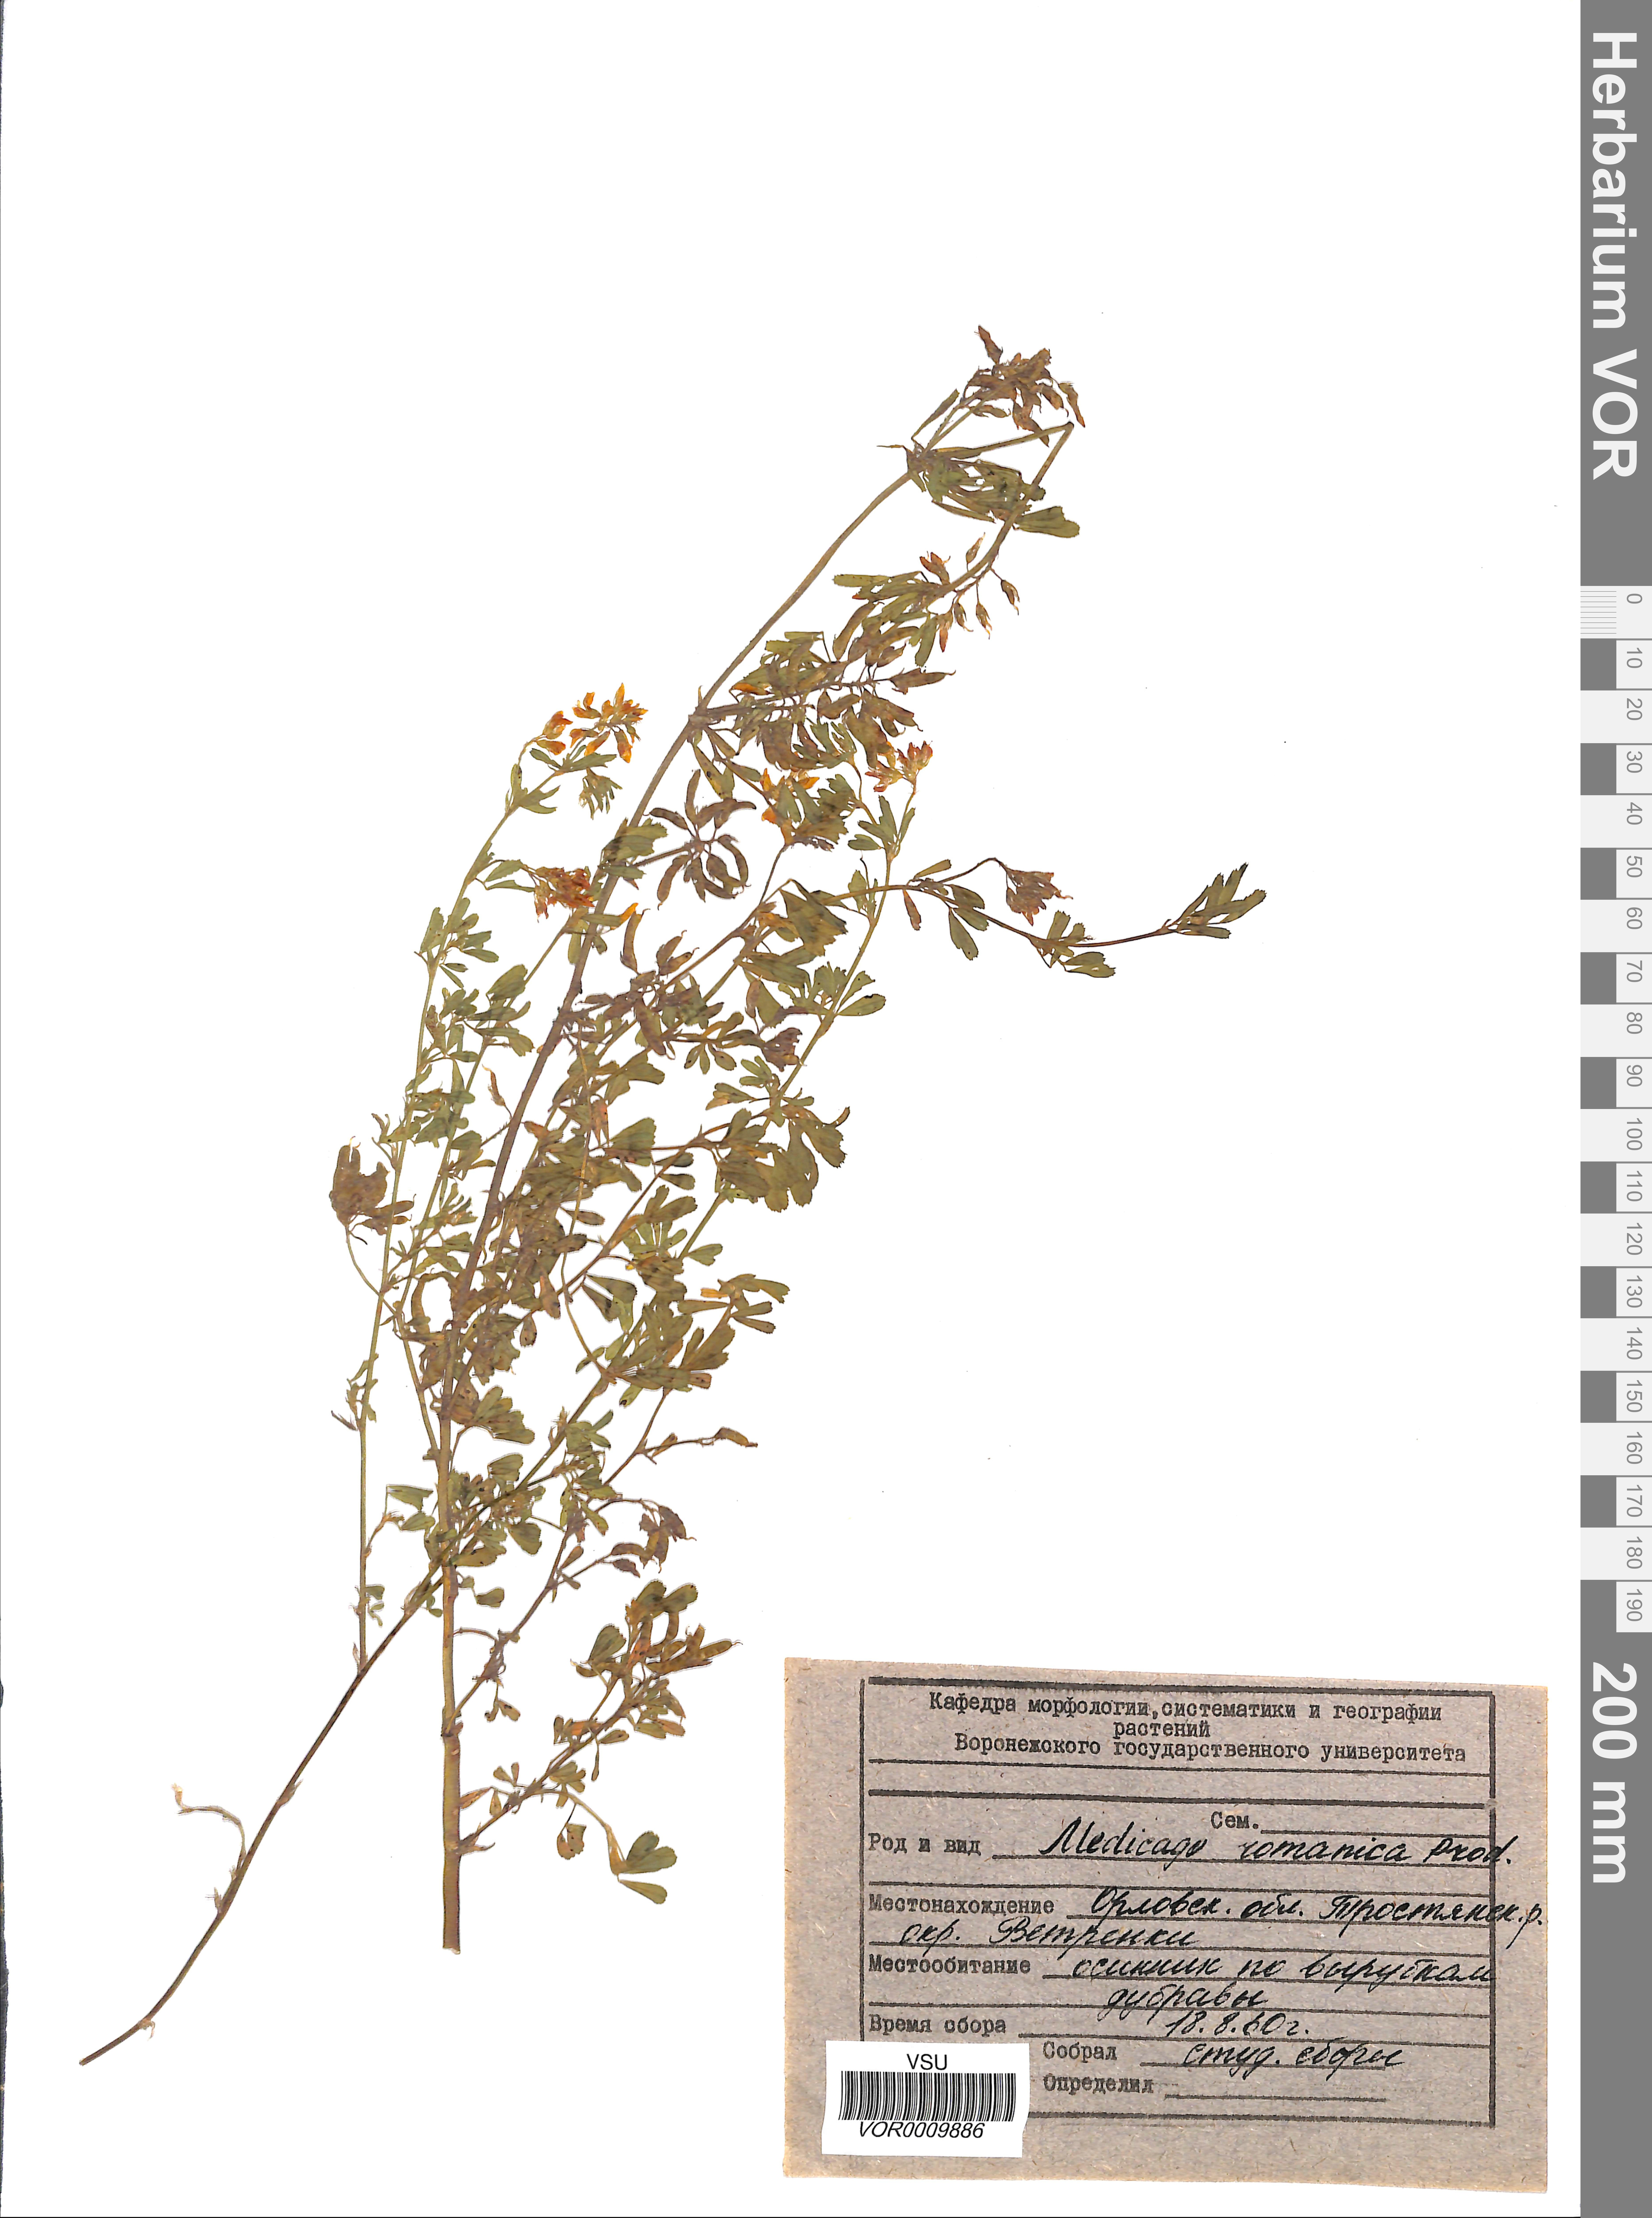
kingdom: Plantae
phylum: Tracheophyta
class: Magnoliopsida
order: Fabales
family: Fabaceae
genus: Medicago
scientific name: Medicago falcata
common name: Sickle medick
